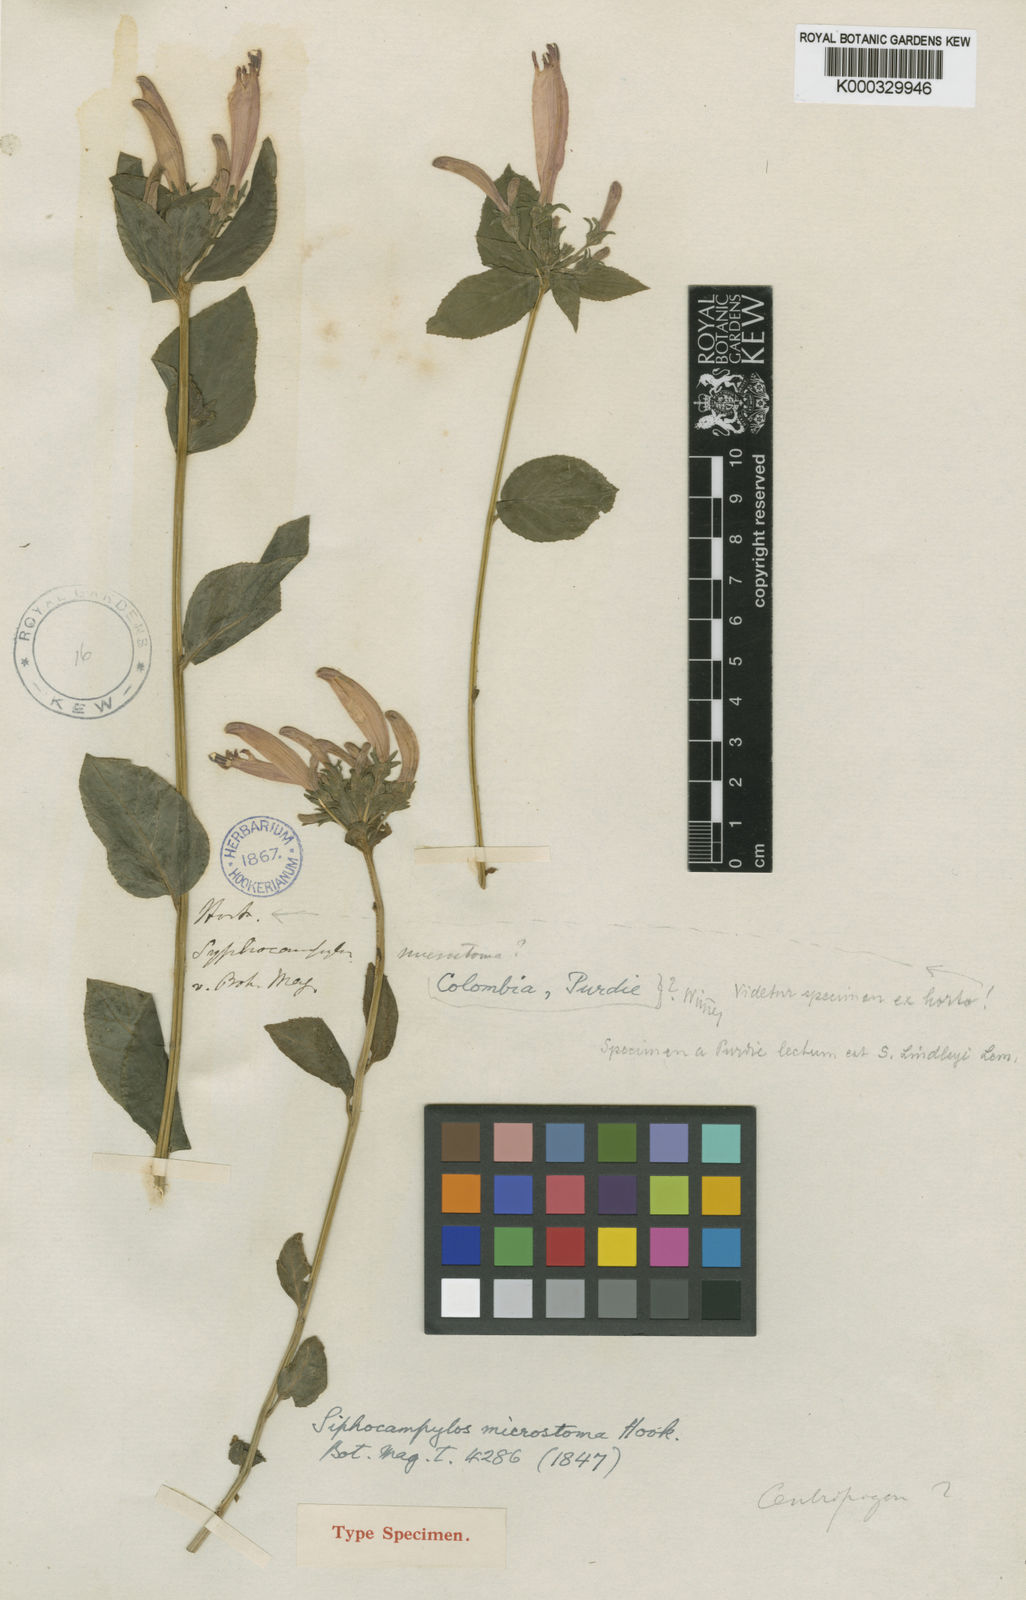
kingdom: Plantae
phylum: Tracheophyta
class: Magnoliopsida
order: Asterales
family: Campanulaceae
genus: Siphocampylus
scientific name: Siphocampylus microstoma
